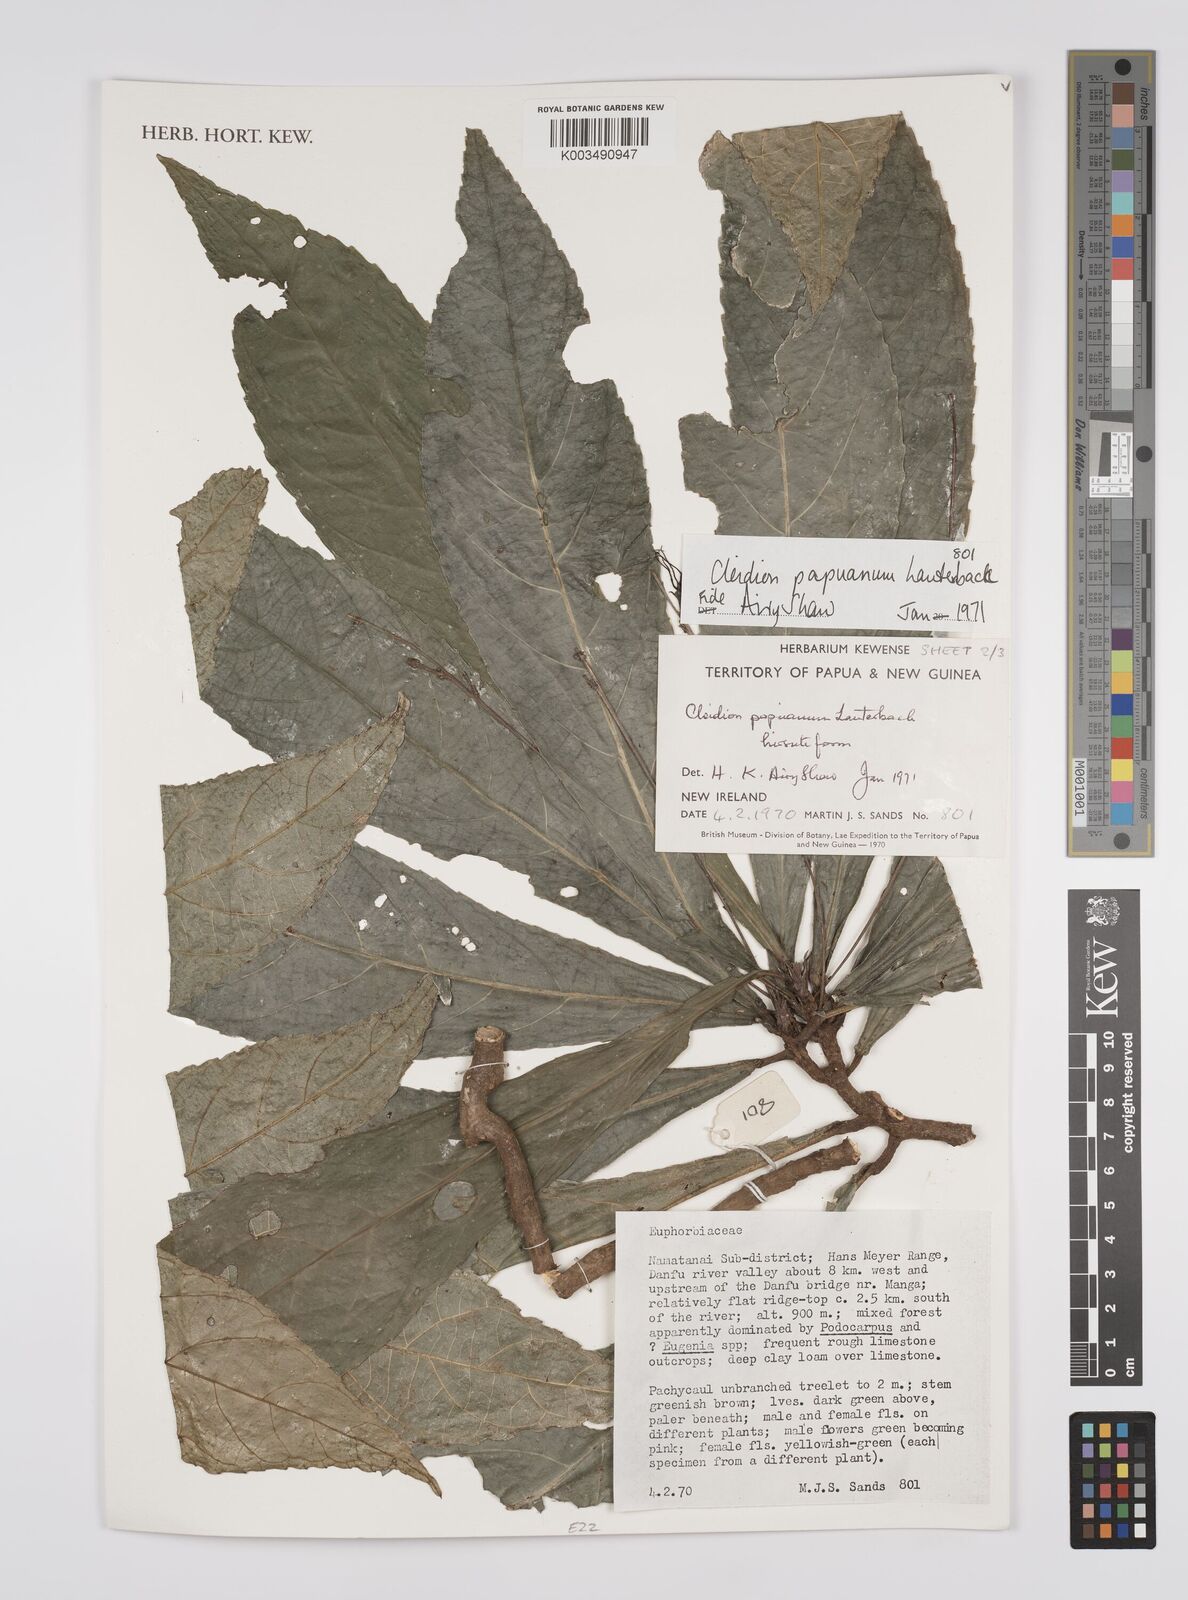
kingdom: Plantae
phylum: Tracheophyta
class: Magnoliopsida
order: Malpighiales
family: Euphorbiaceae
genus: Cleidion
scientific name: Cleidion papuanum
